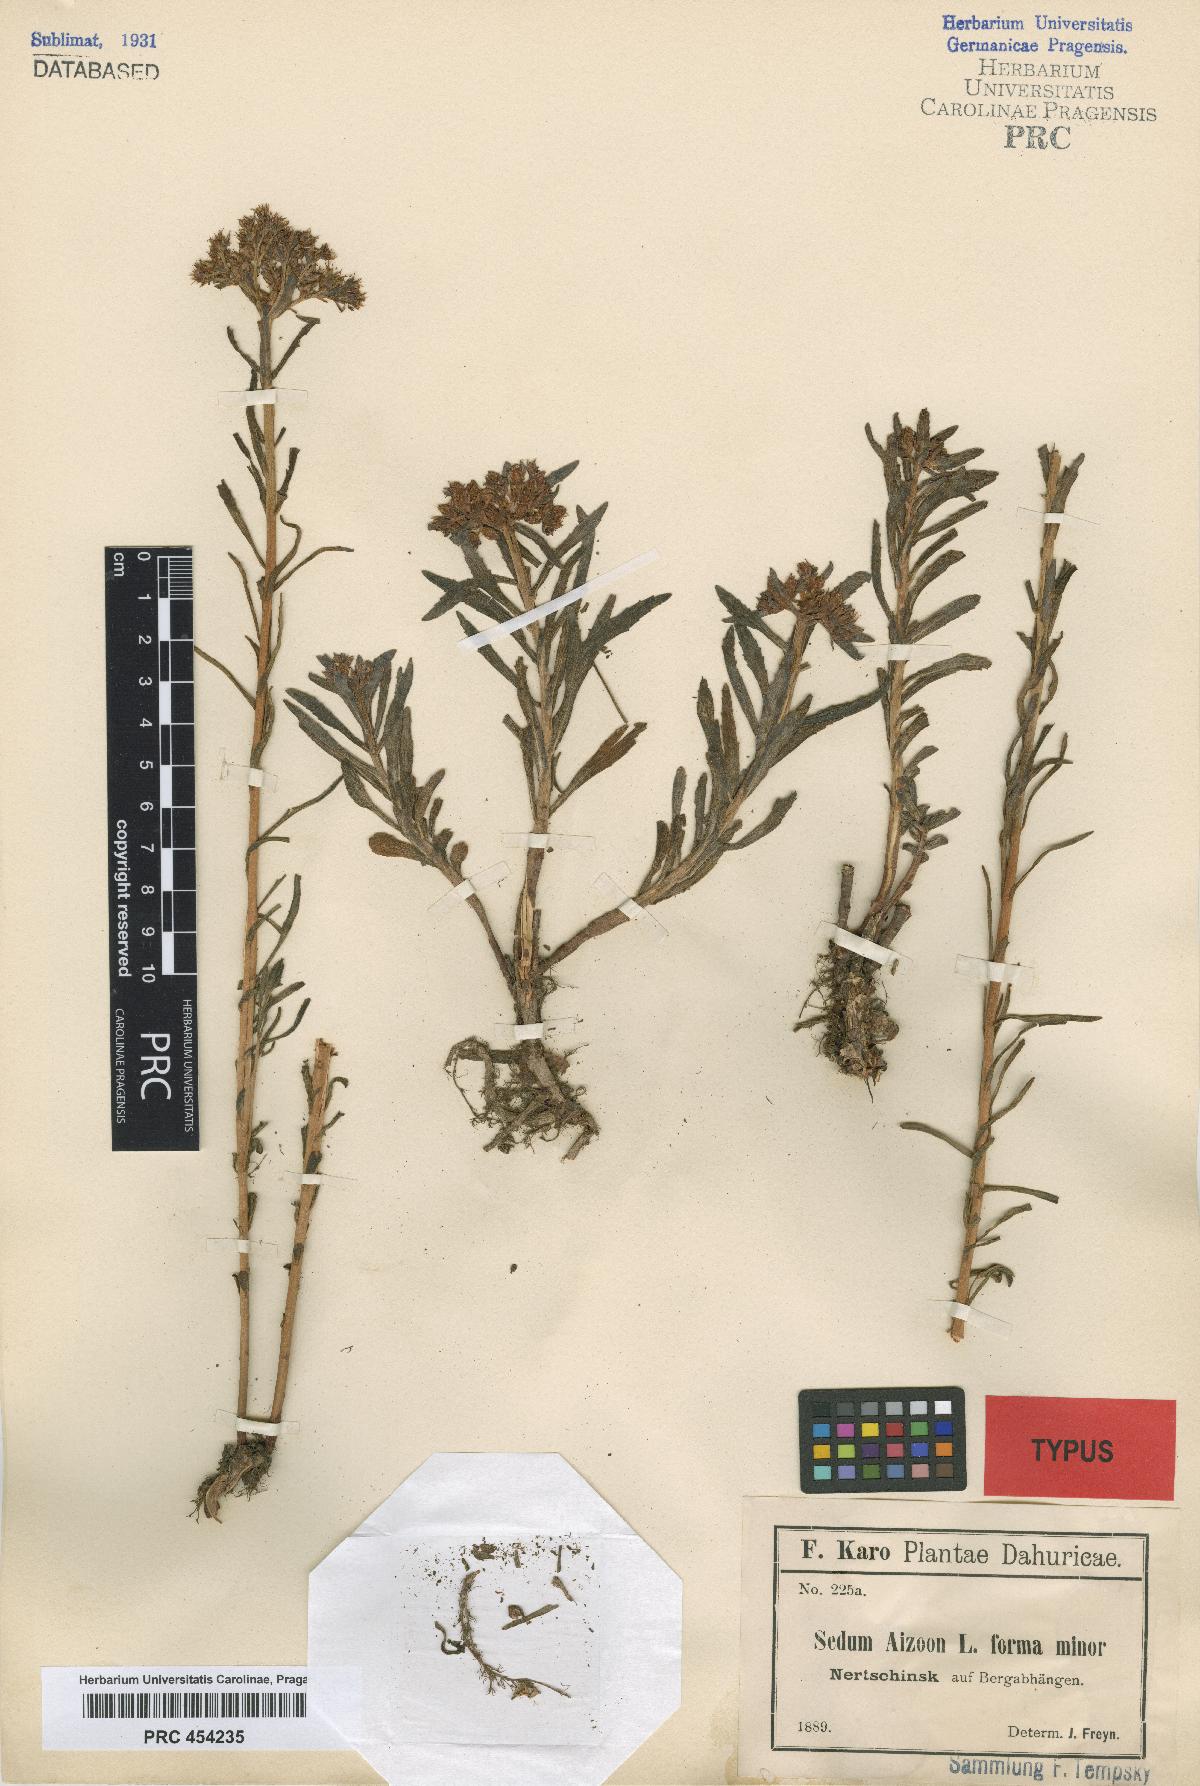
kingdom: Plantae
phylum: Tracheophyta
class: Magnoliopsida
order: Saxifragales
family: Crassulaceae
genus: Sedum
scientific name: Sedum aizoon
